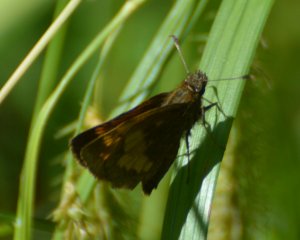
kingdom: Animalia
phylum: Arthropoda
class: Insecta
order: Lepidoptera
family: Hesperiidae
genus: Lon
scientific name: Lon hobomok
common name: Hobomok Skipper
